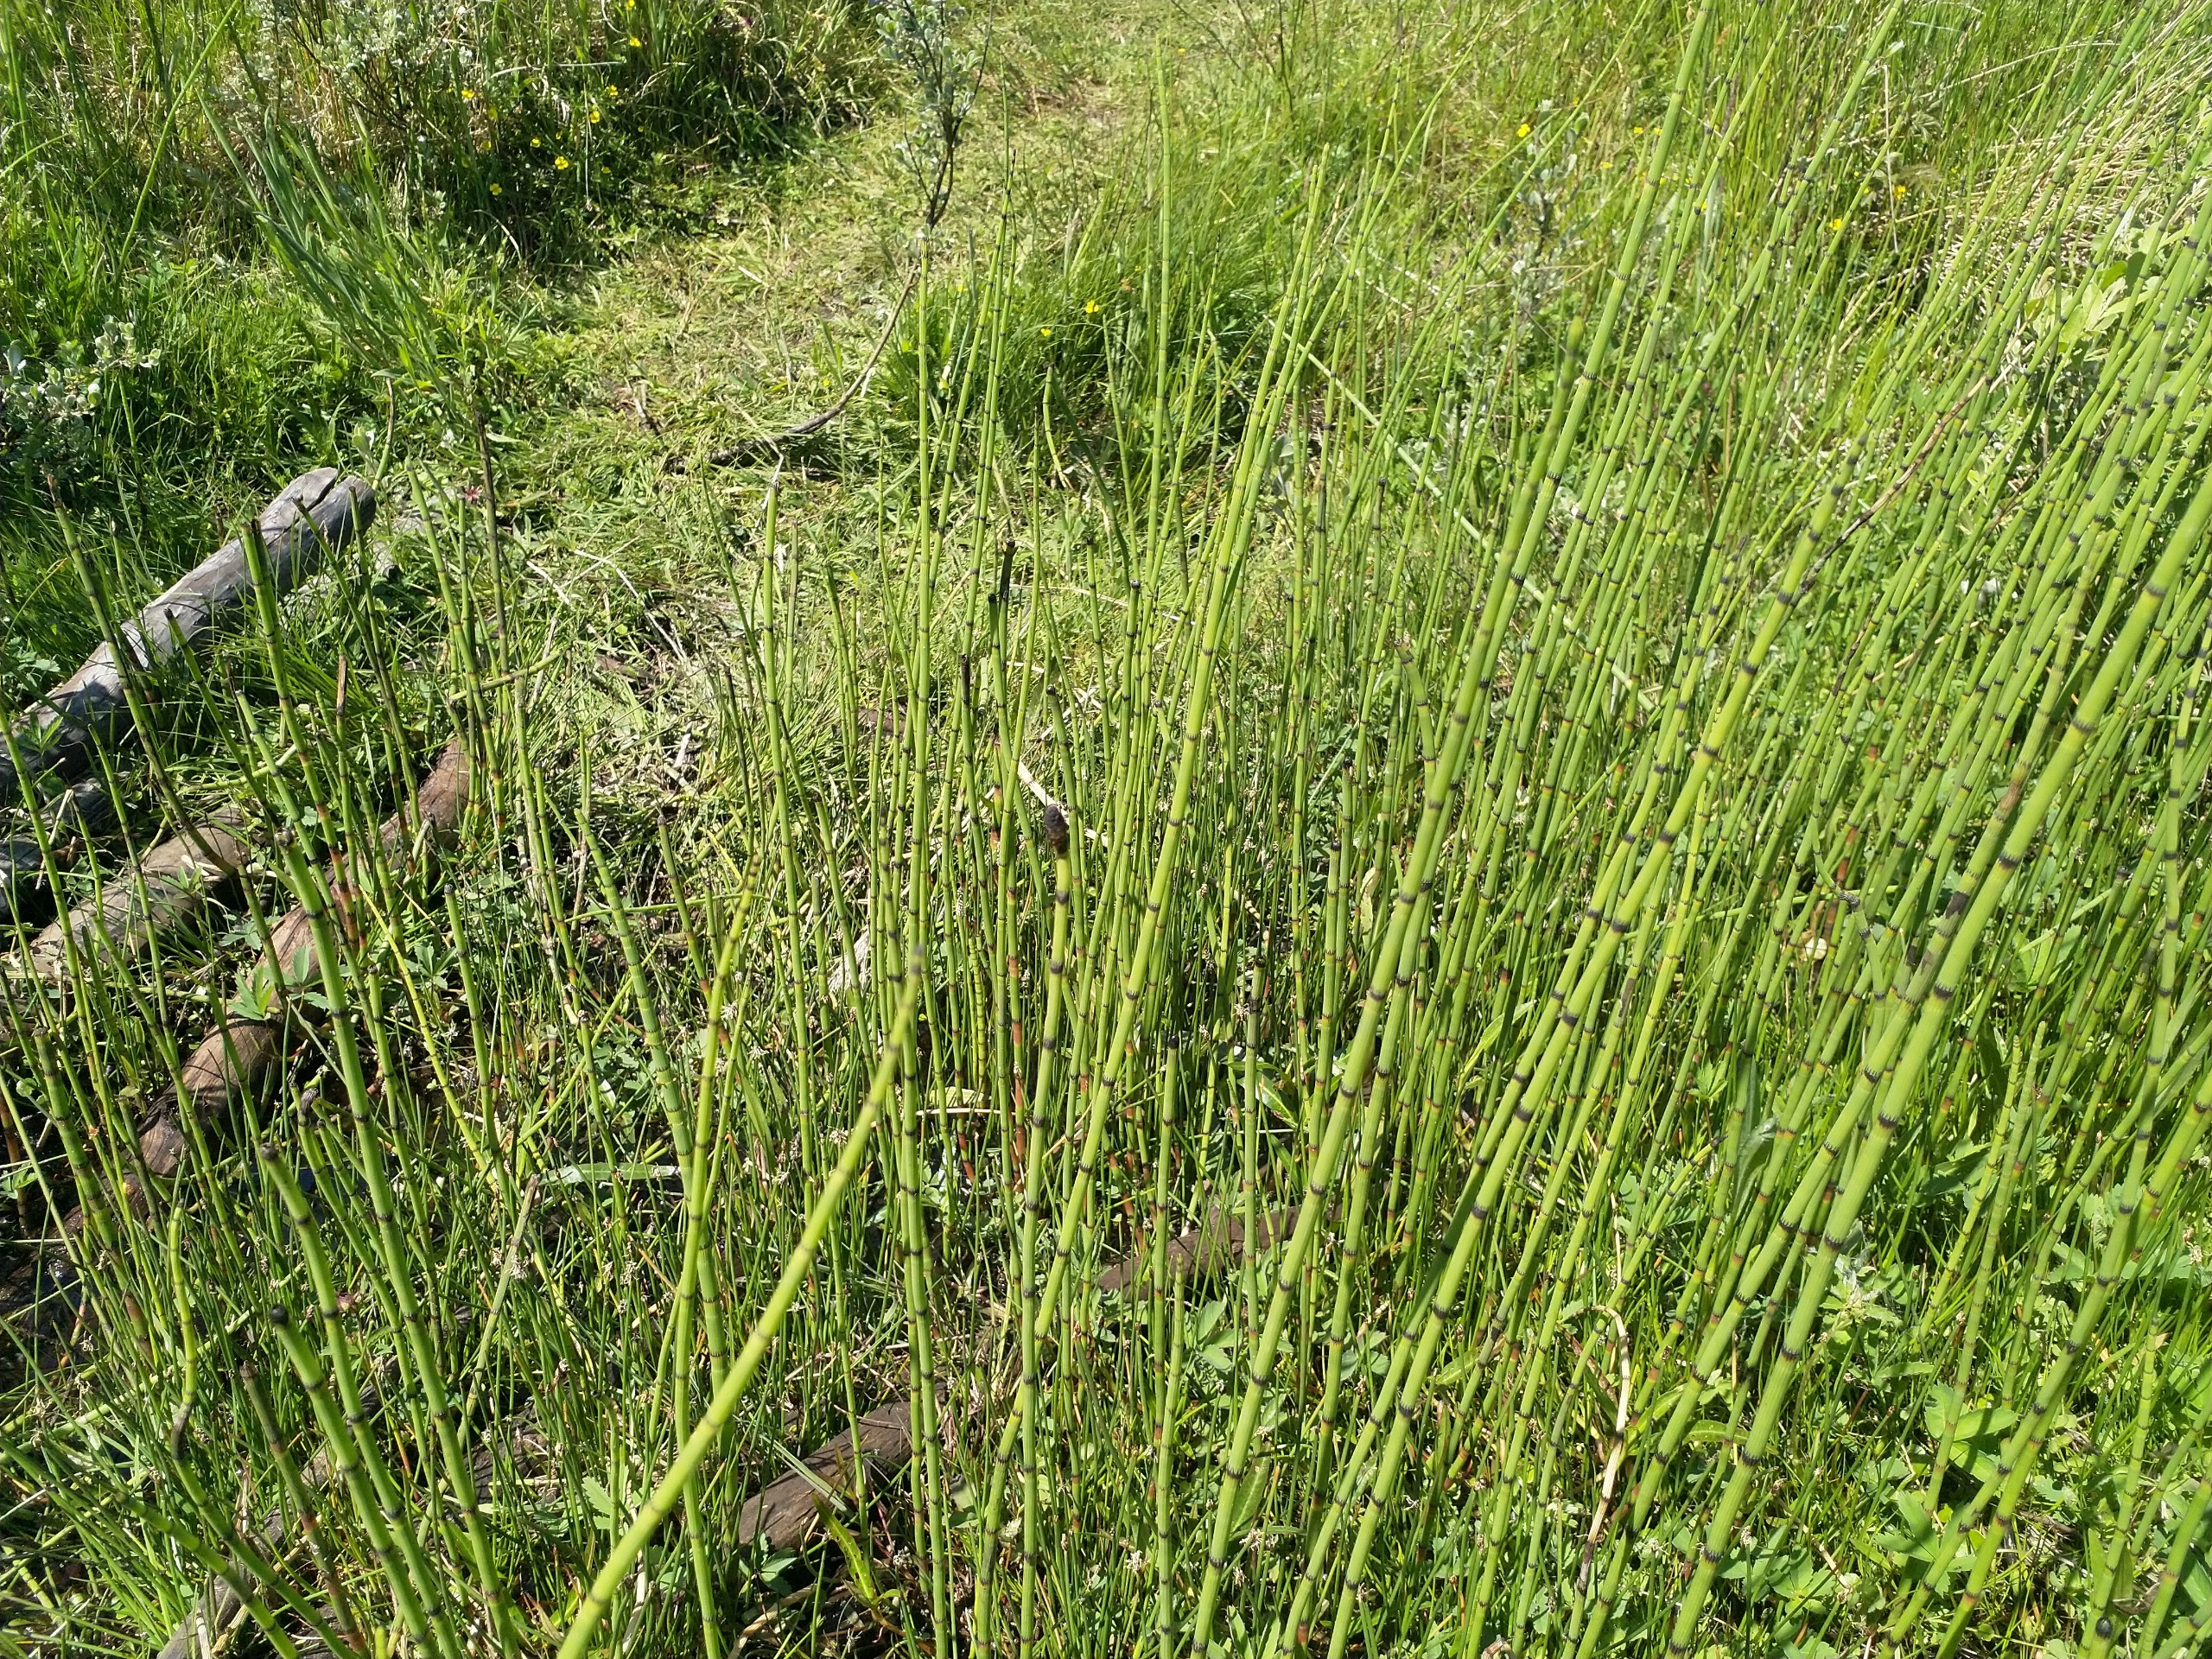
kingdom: Plantae
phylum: Tracheophyta
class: Polypodiopsida
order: Equisetales
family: Equisetaceae
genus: Equisetum
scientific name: Equisetum fluviatile
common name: Dynd-padderok
